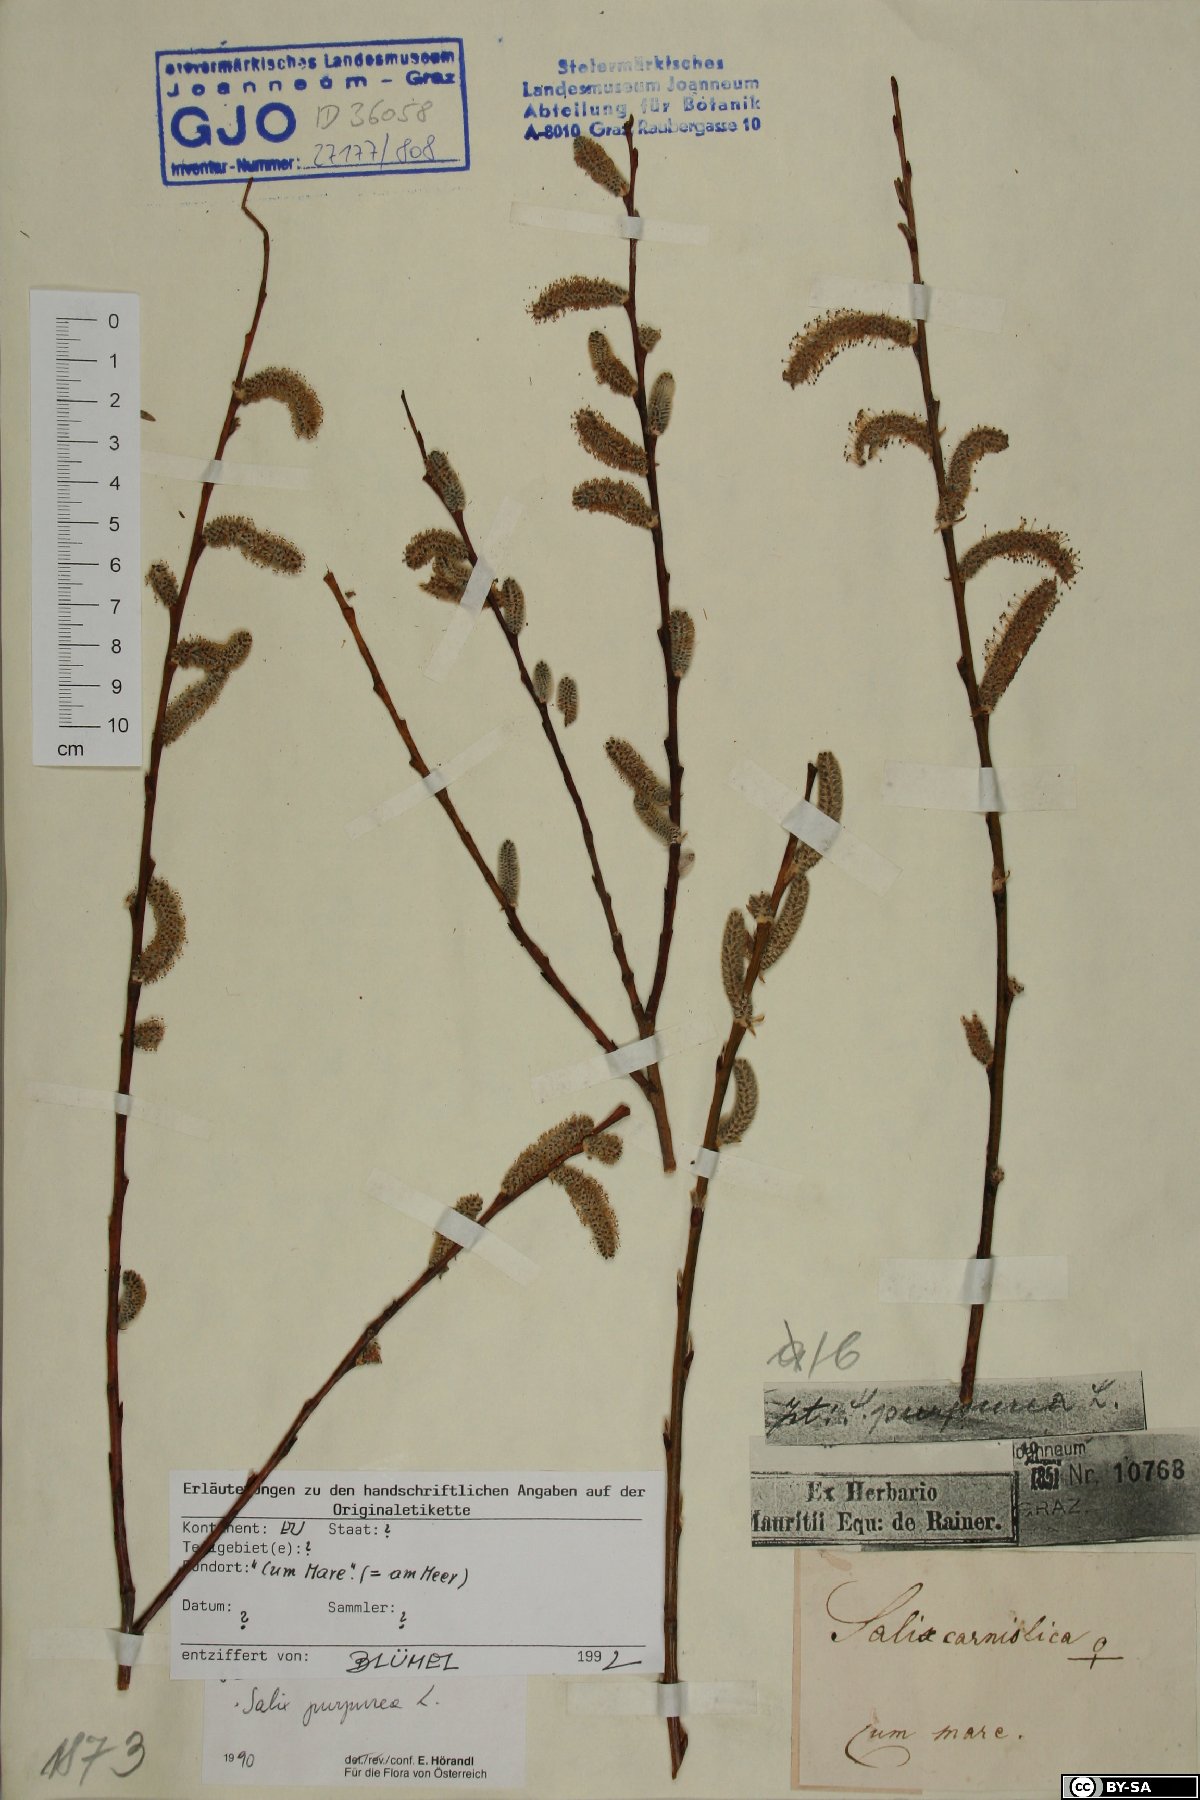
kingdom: Plantae
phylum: Tracheophyta
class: Magnoliopsida
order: Malpighiales
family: Salicaceae
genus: Salix
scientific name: Salix purpurea
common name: Purple willow
